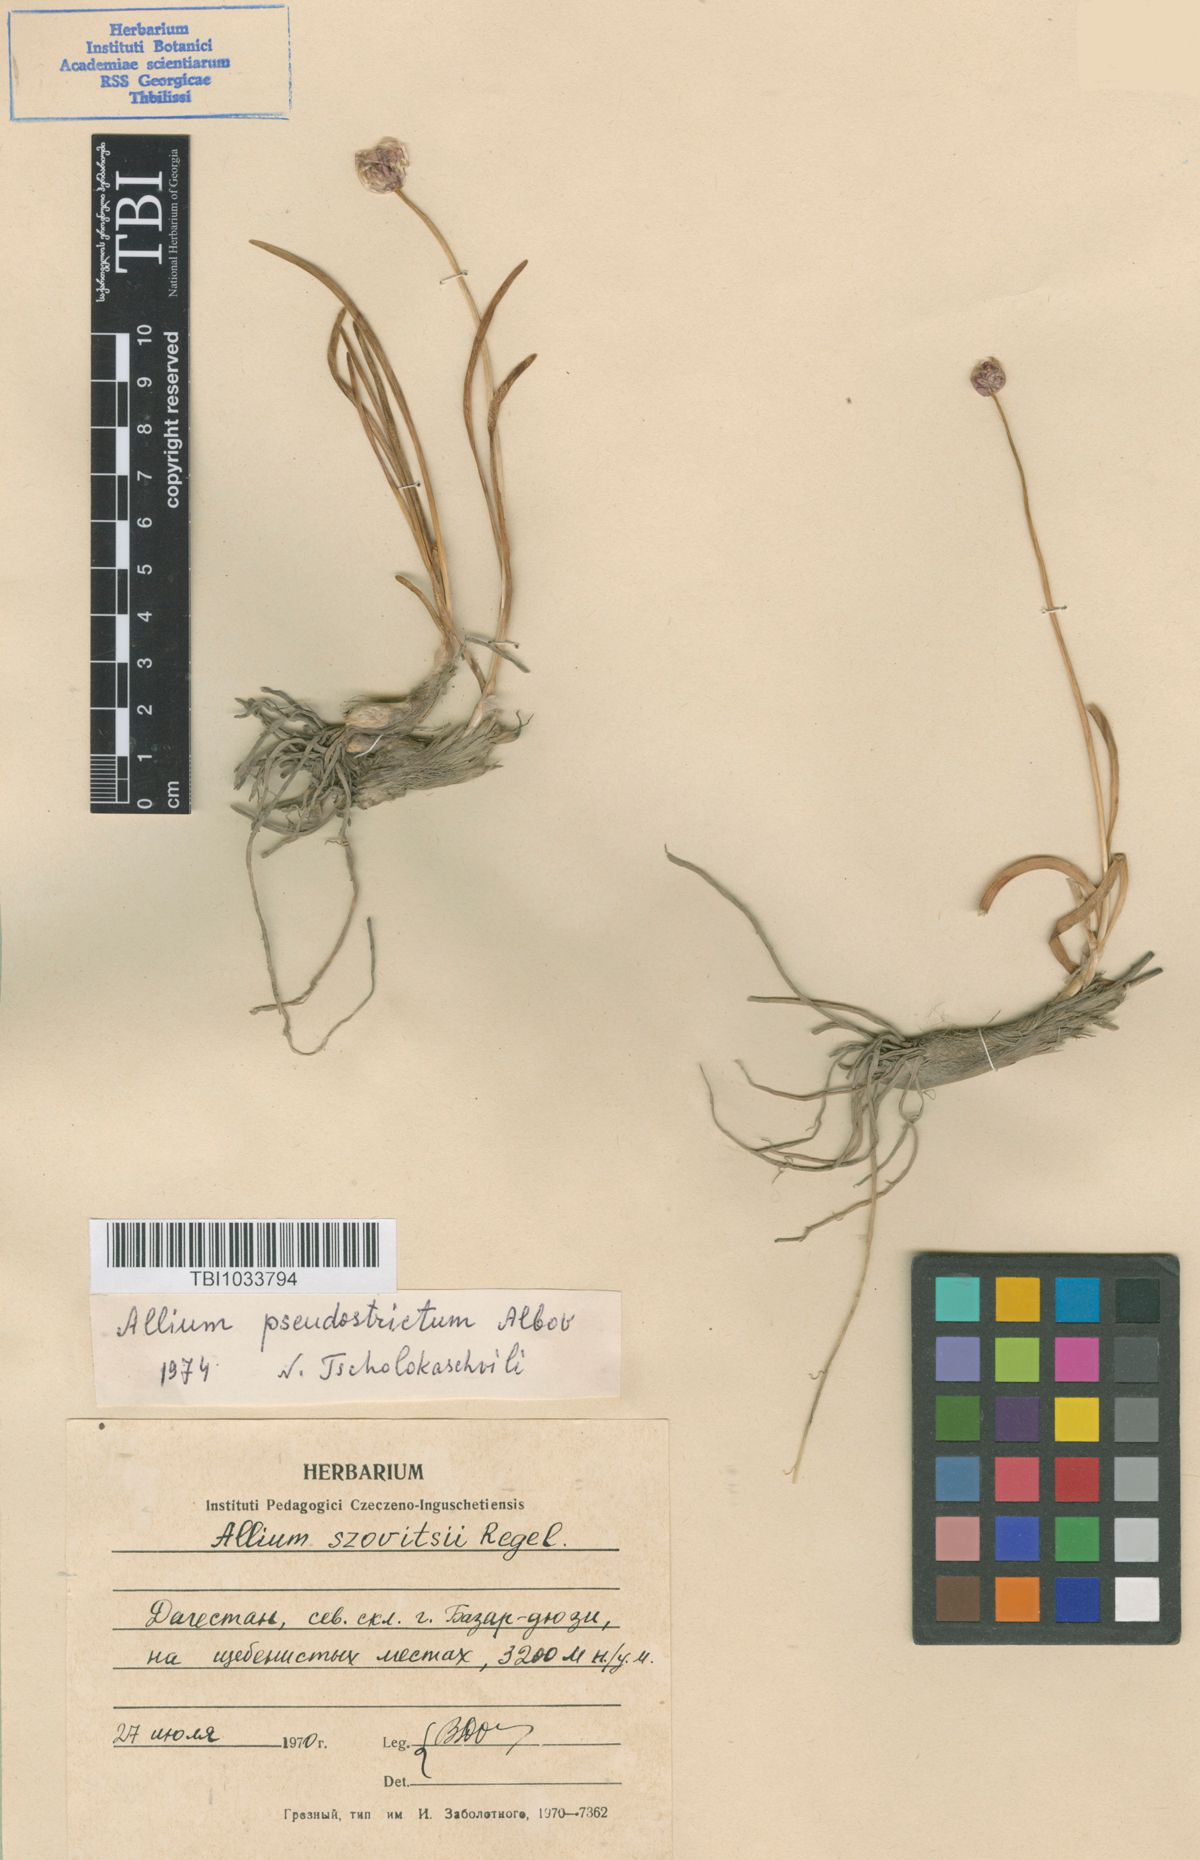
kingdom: Plantae
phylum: Tracheophyta
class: Liliopsida
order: Asparagales
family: Amaryllidaceae
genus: Allium
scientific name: Allium pseudostrictum
